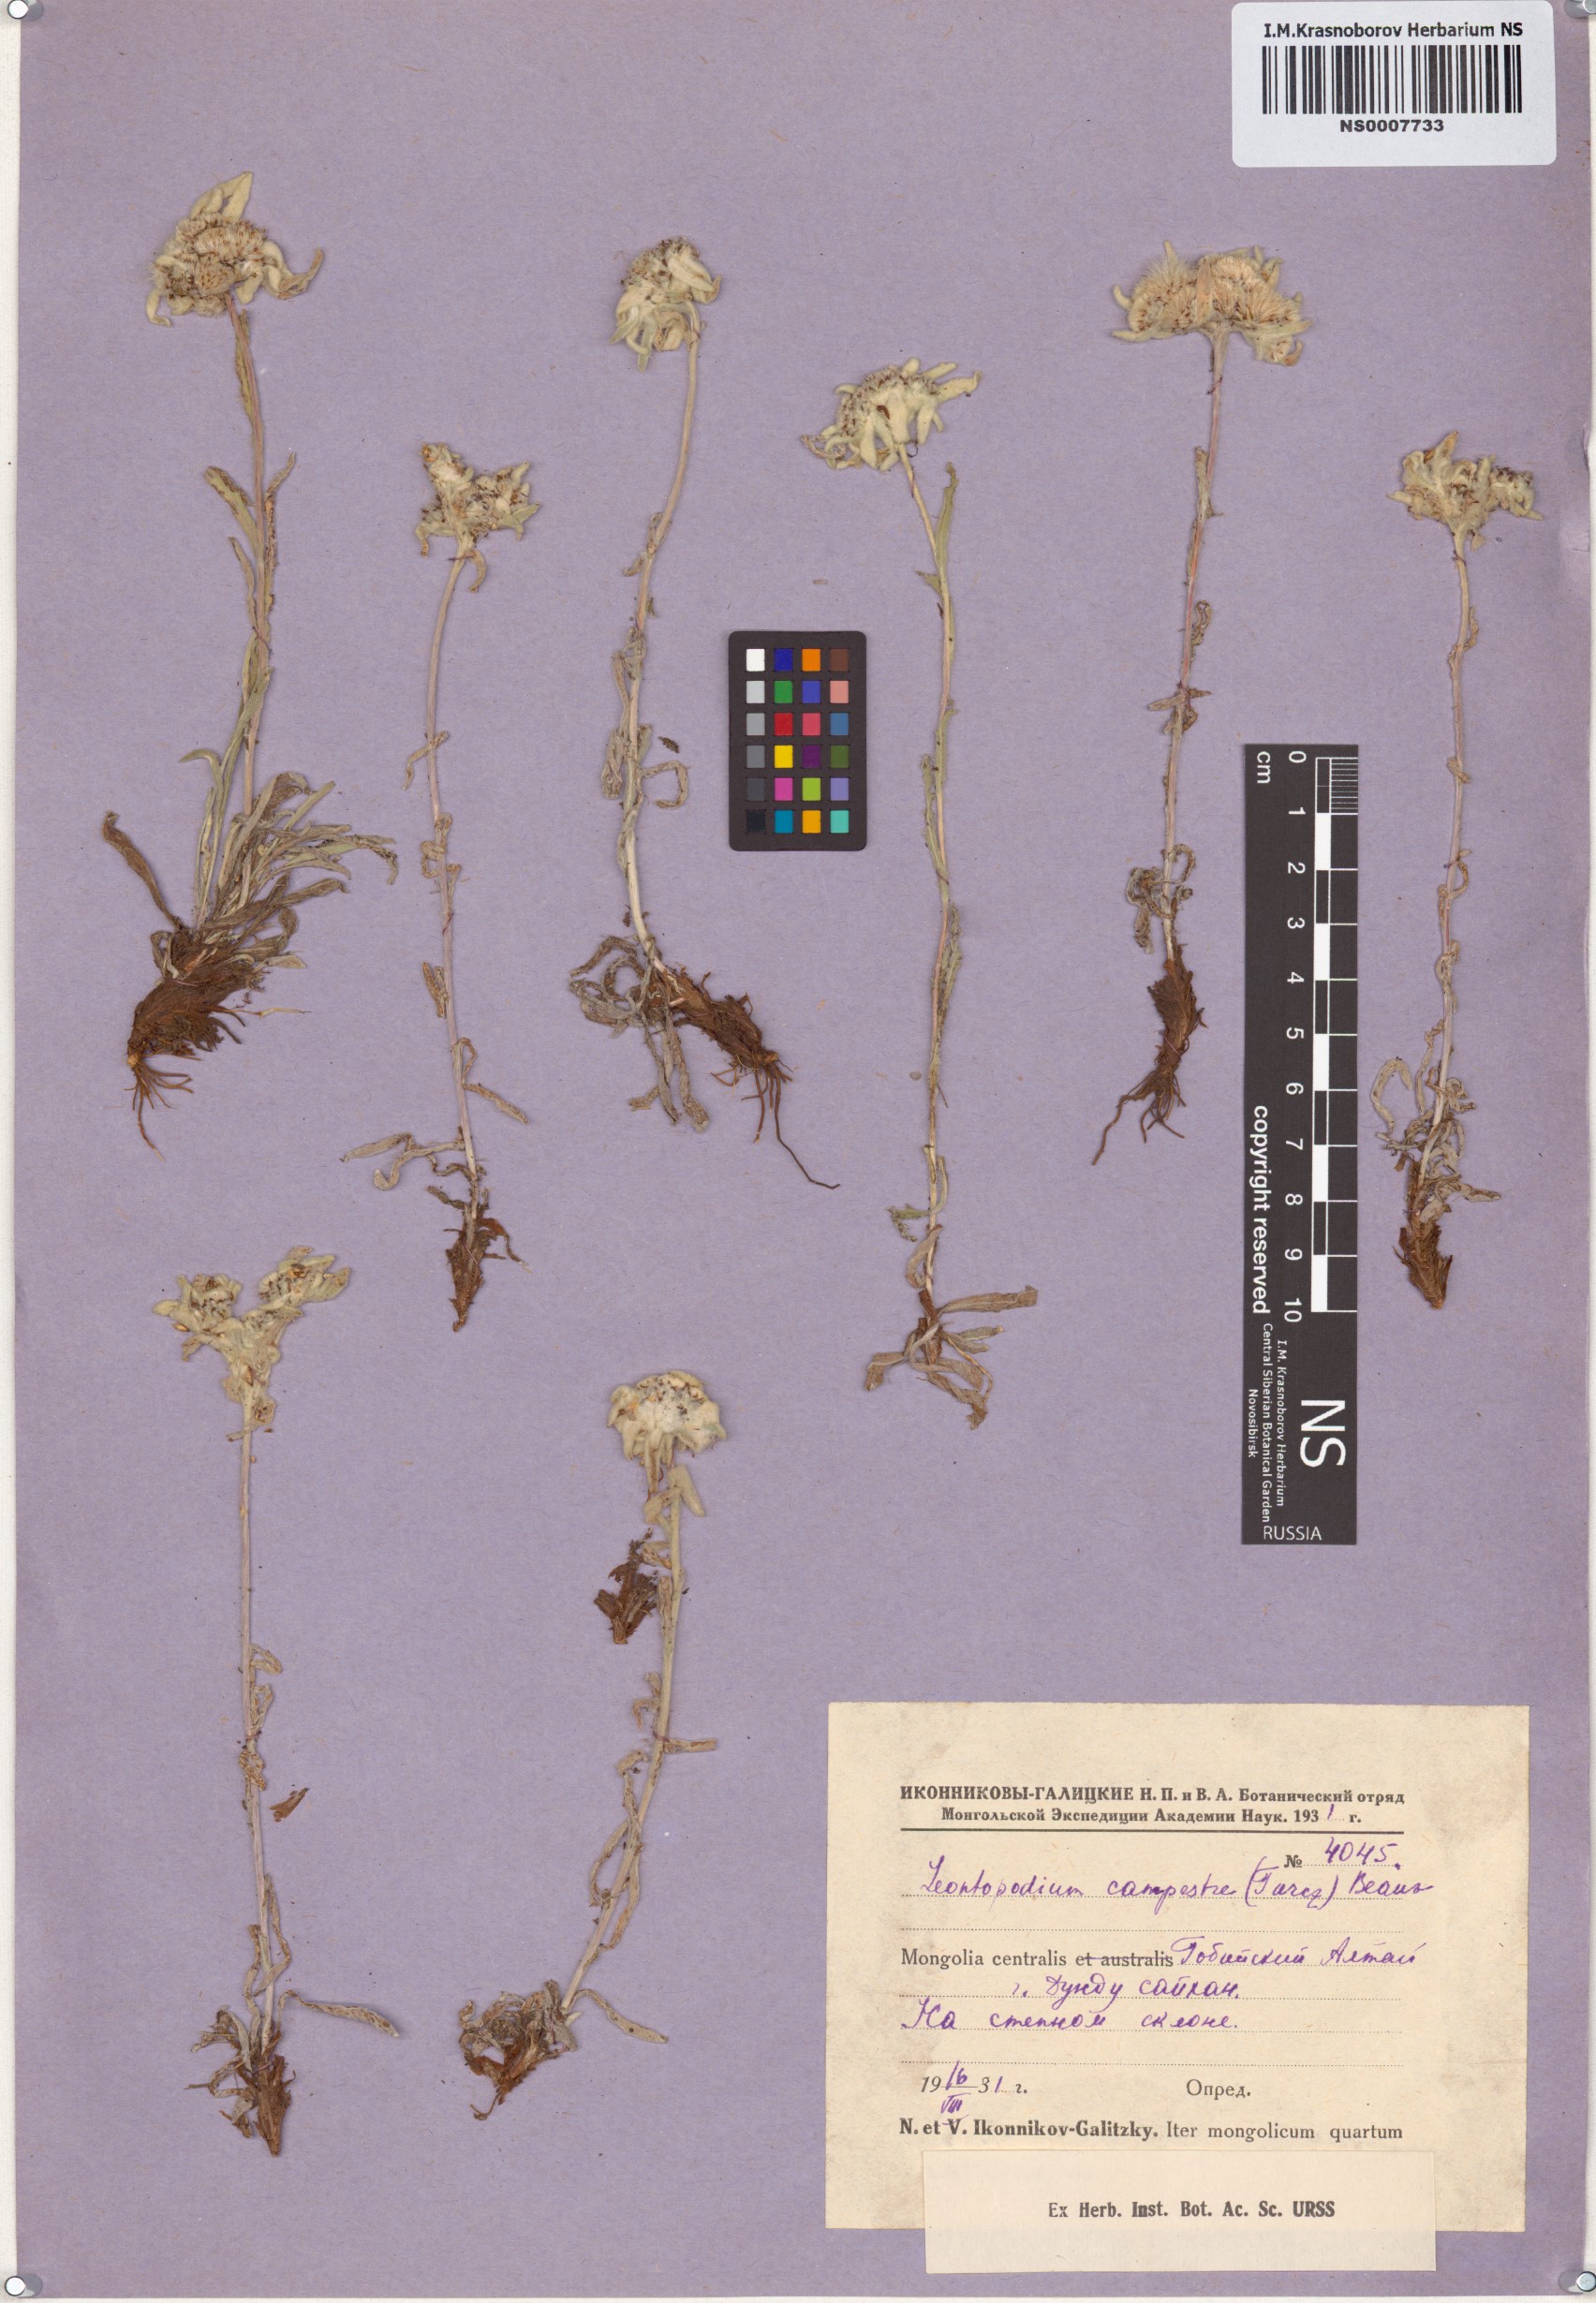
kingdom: Plantae
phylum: Tracheophyta
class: Magnoliopsida
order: Asterales
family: Asteraceae
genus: Leontopodium
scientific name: Leontopodium campestre
